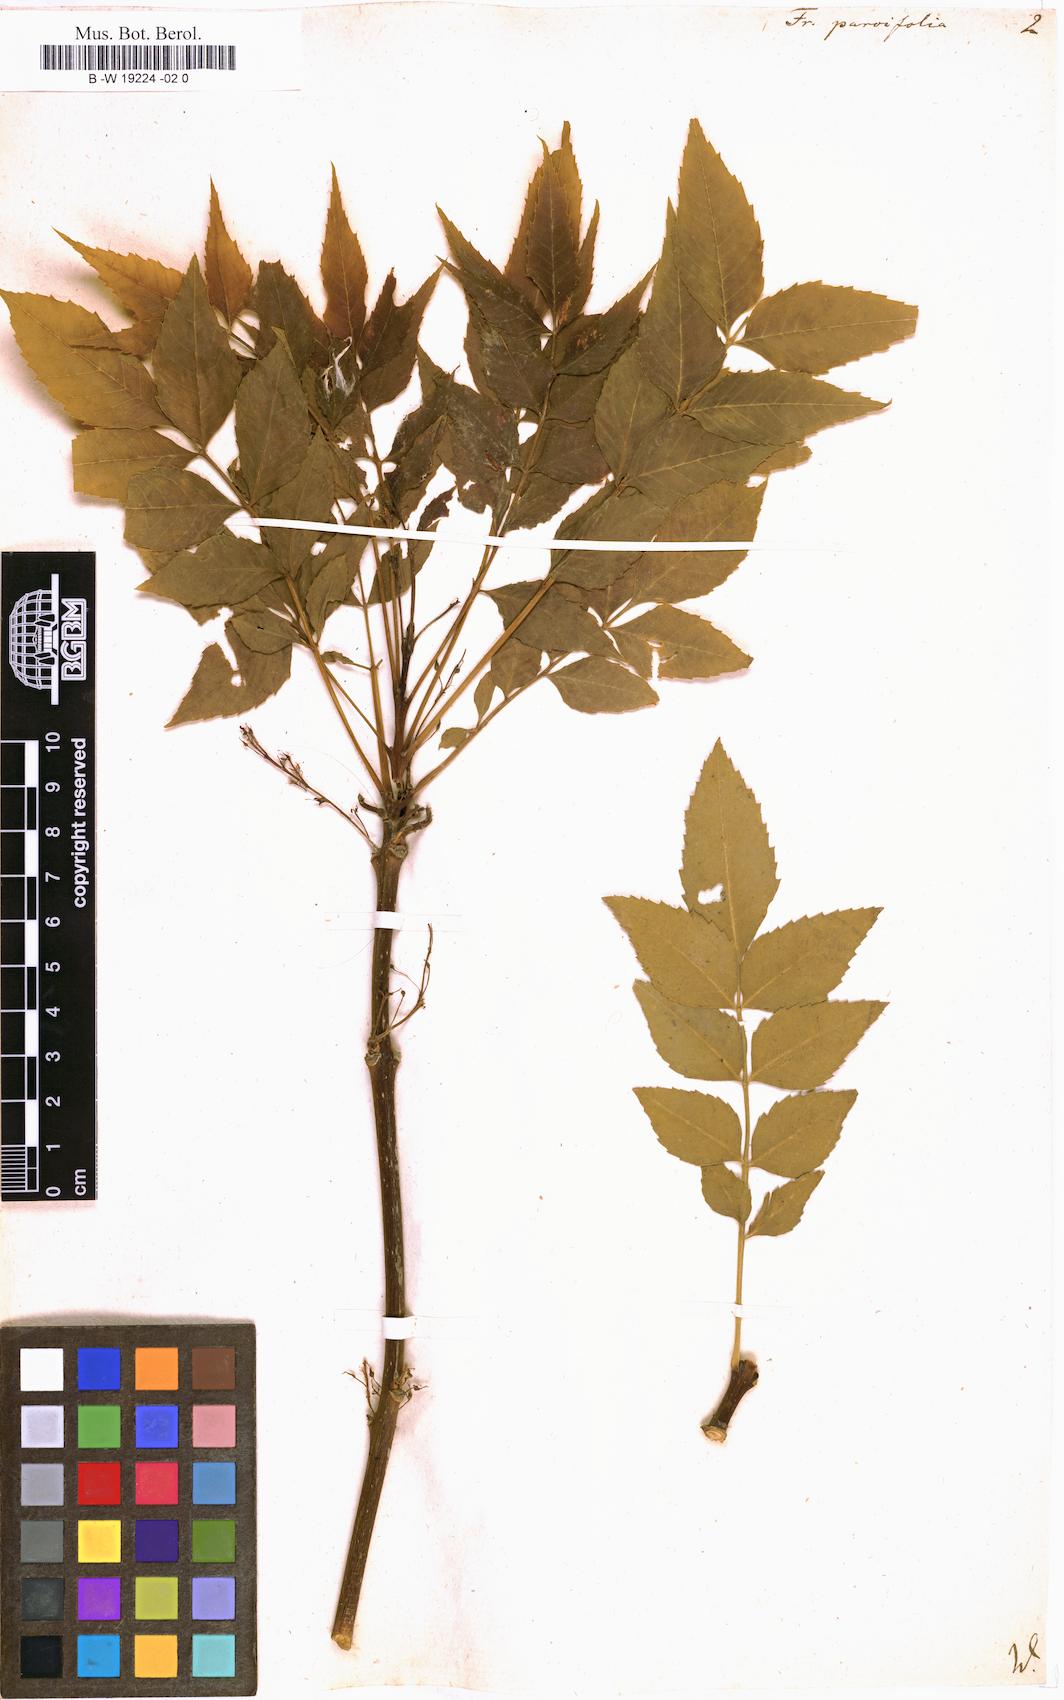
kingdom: Plantae
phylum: Tracheophyta
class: Magnoliopsida
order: Lamiales
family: Oleaceae
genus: Fraxinus
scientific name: Fraxinus parvifolia
